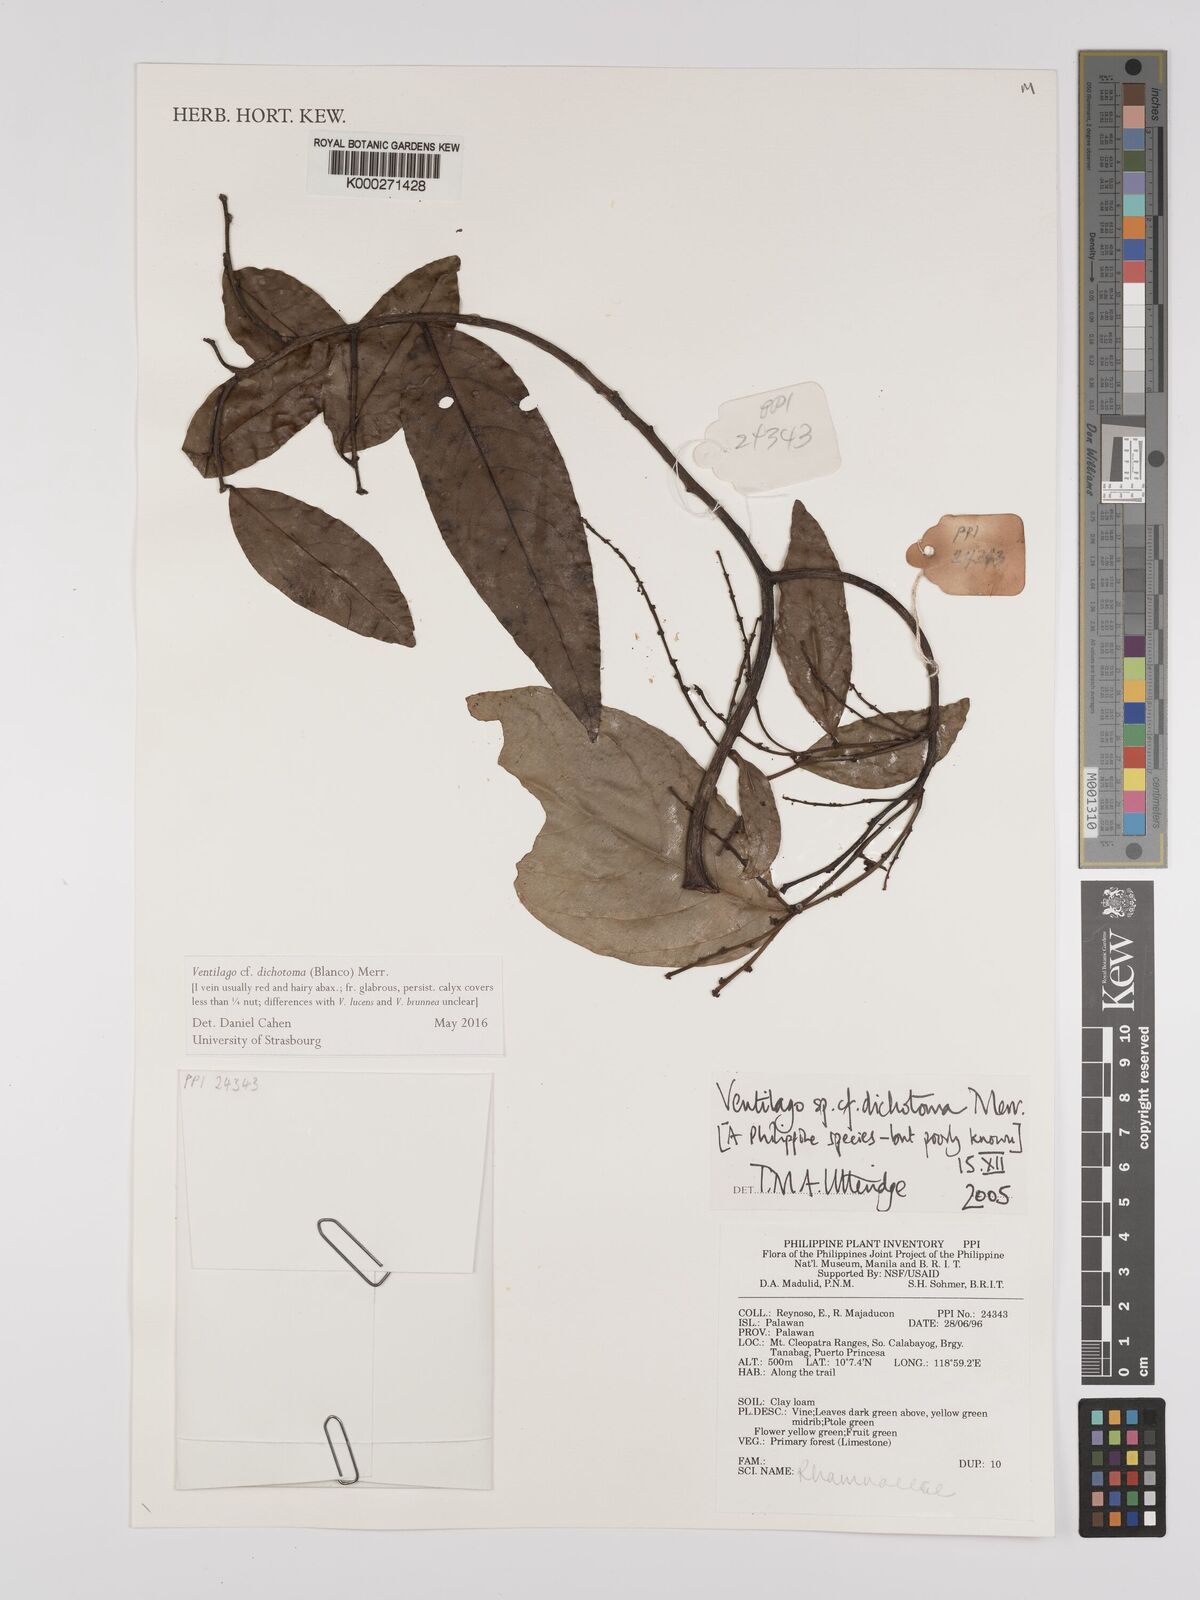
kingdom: Plantae
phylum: Tracheophyta
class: Magnoliopsida
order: Rosales
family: Rhamnaceae
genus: Ventilago
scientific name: Ventilago
